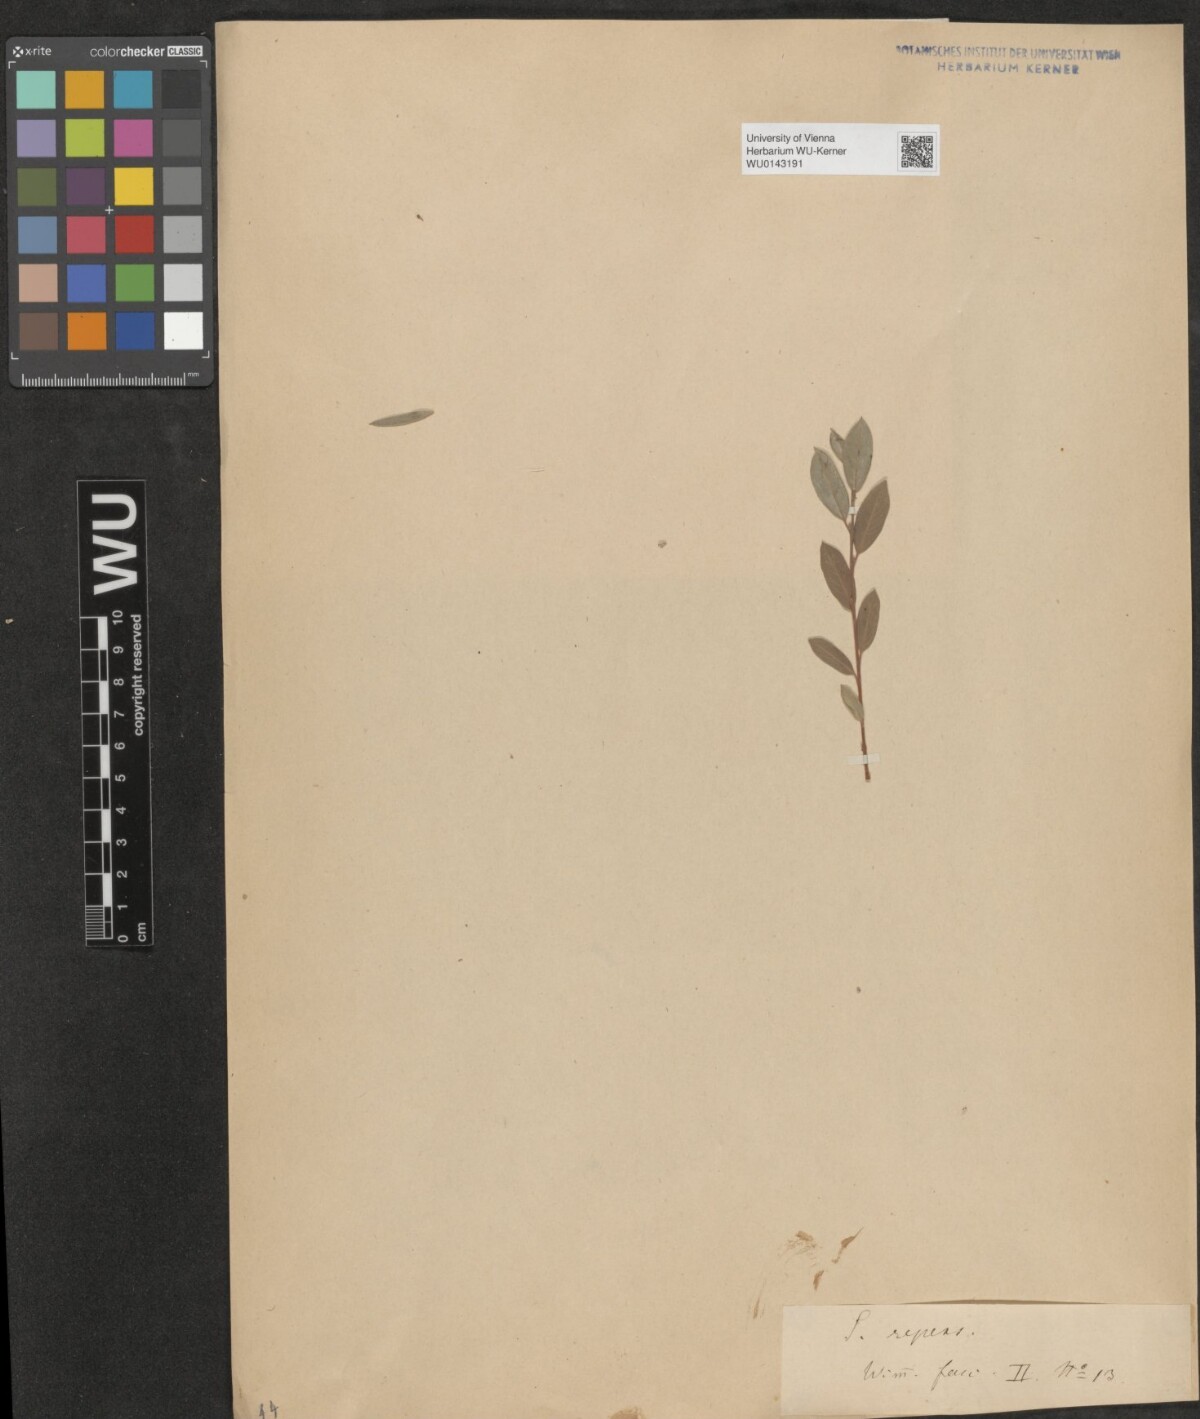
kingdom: Plantae
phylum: Tracheophyta
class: Magnoliopsida
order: Malpighiales
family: Salicaceae
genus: Salix
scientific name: Salix repens
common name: Creeping willow
